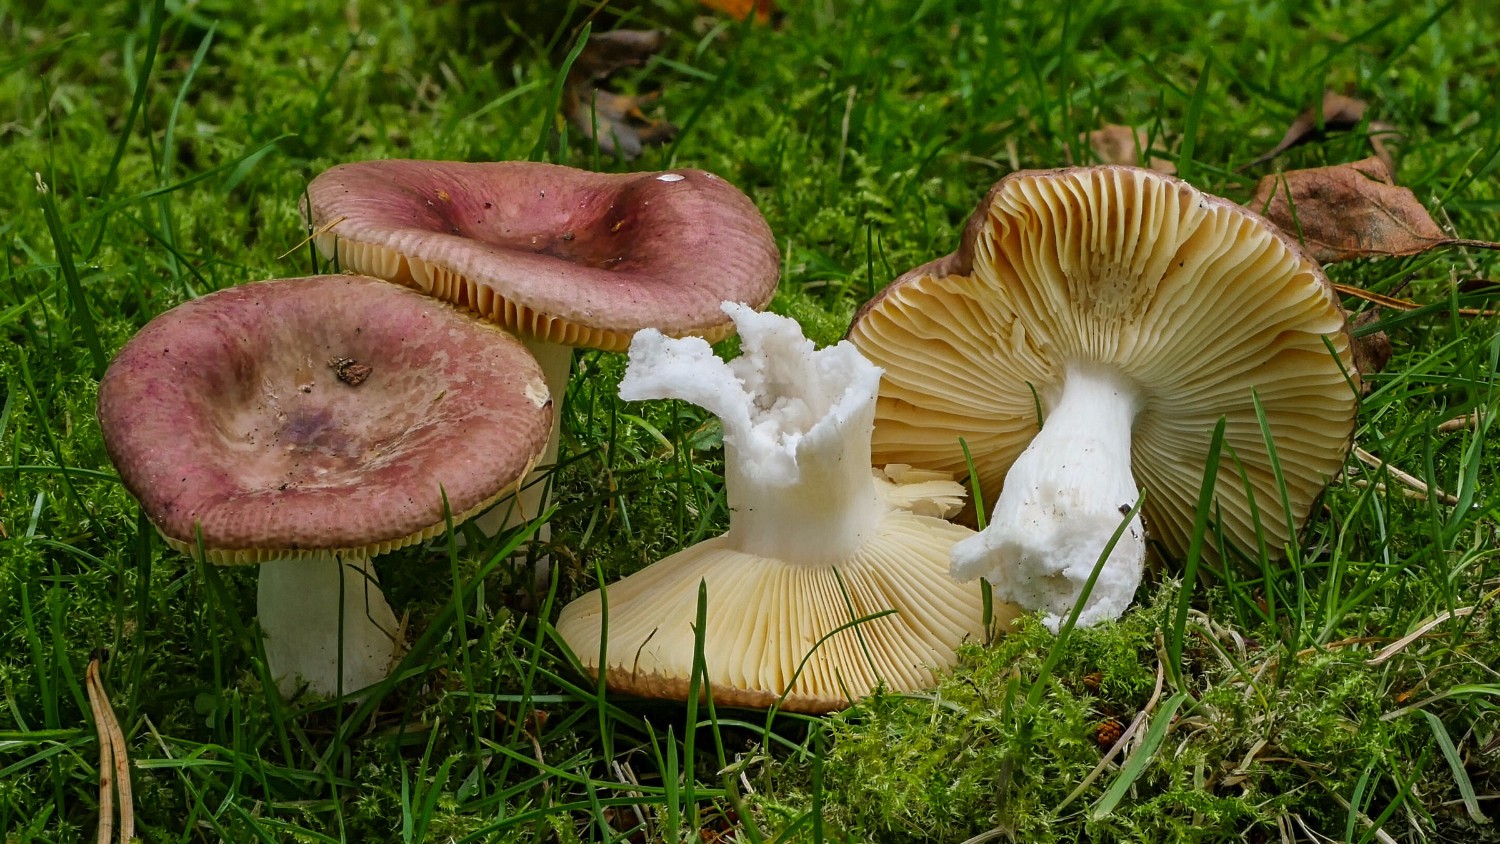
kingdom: Fungi
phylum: Basidiomycota
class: Agaricomycetes
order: Russulales
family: Russulaceae
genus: Russula
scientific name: Russula cessans
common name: fyrre-skørhat
